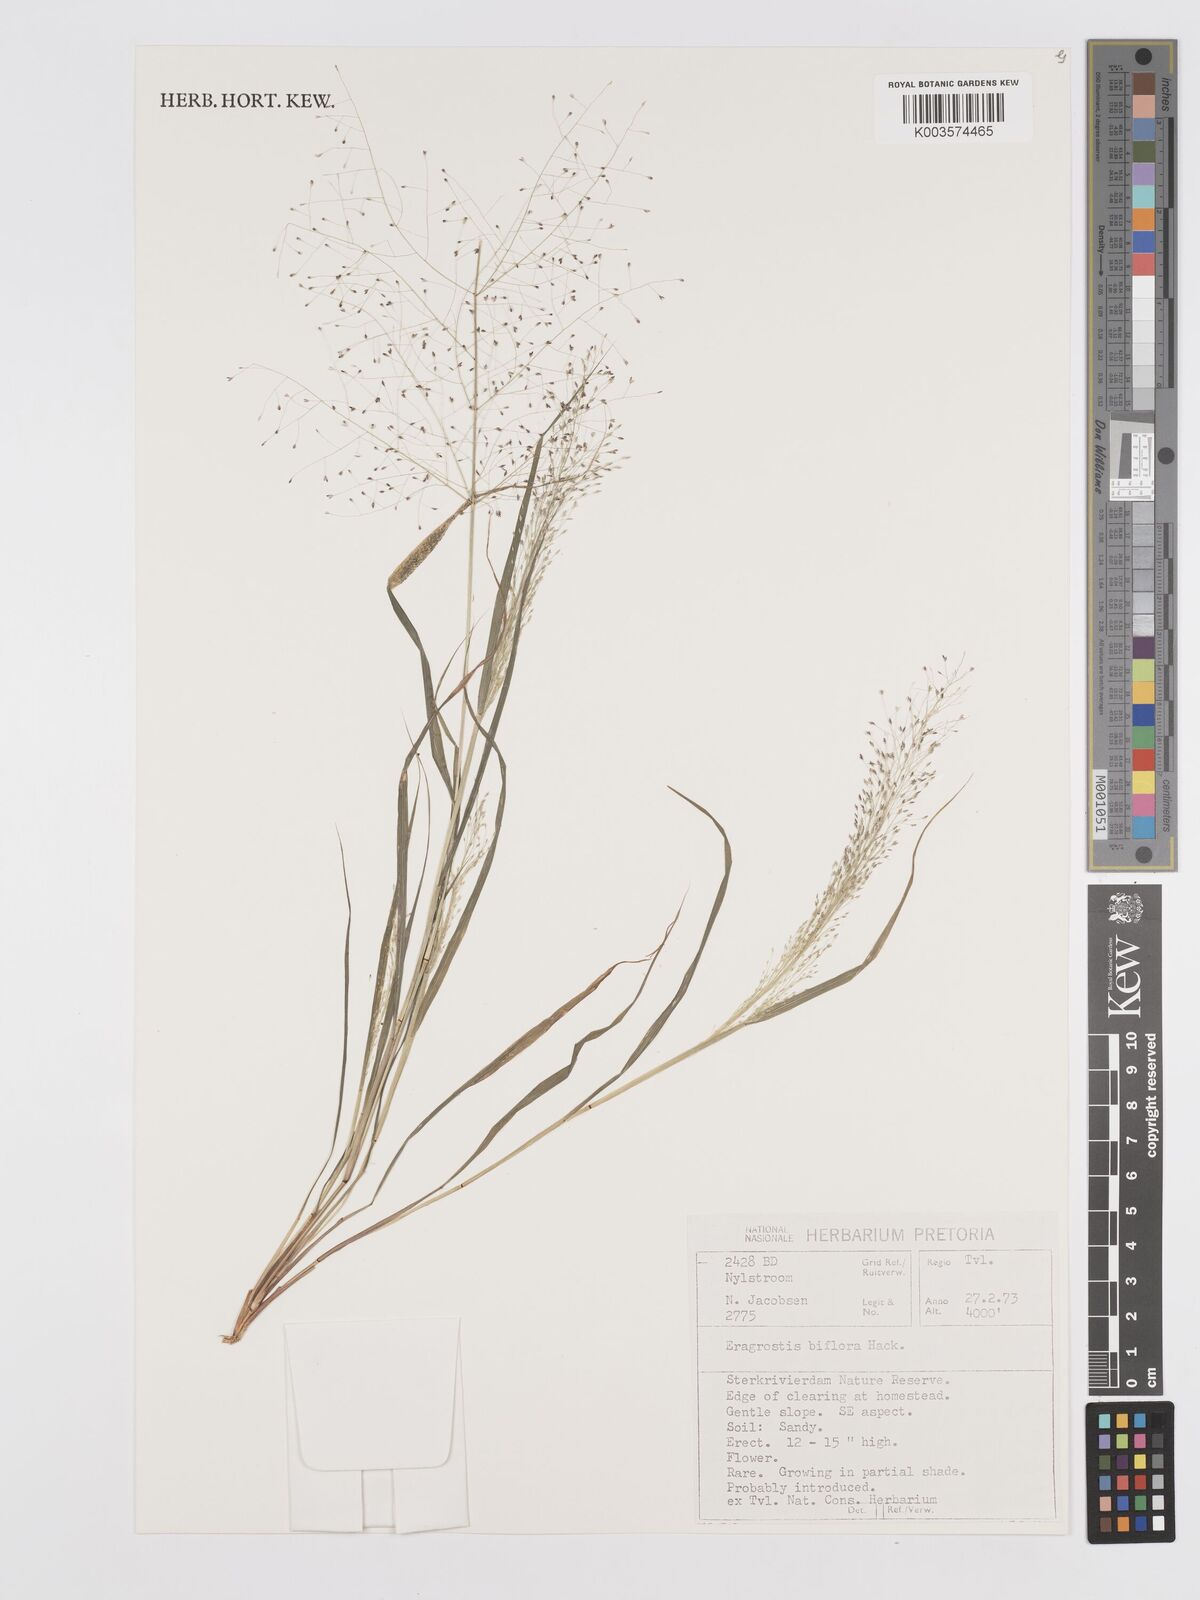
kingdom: Plantae
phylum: Tracheophyta
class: Liliopsida
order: Poales
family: Poaceae
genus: Eragrostis
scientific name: Eragrostis biflora
